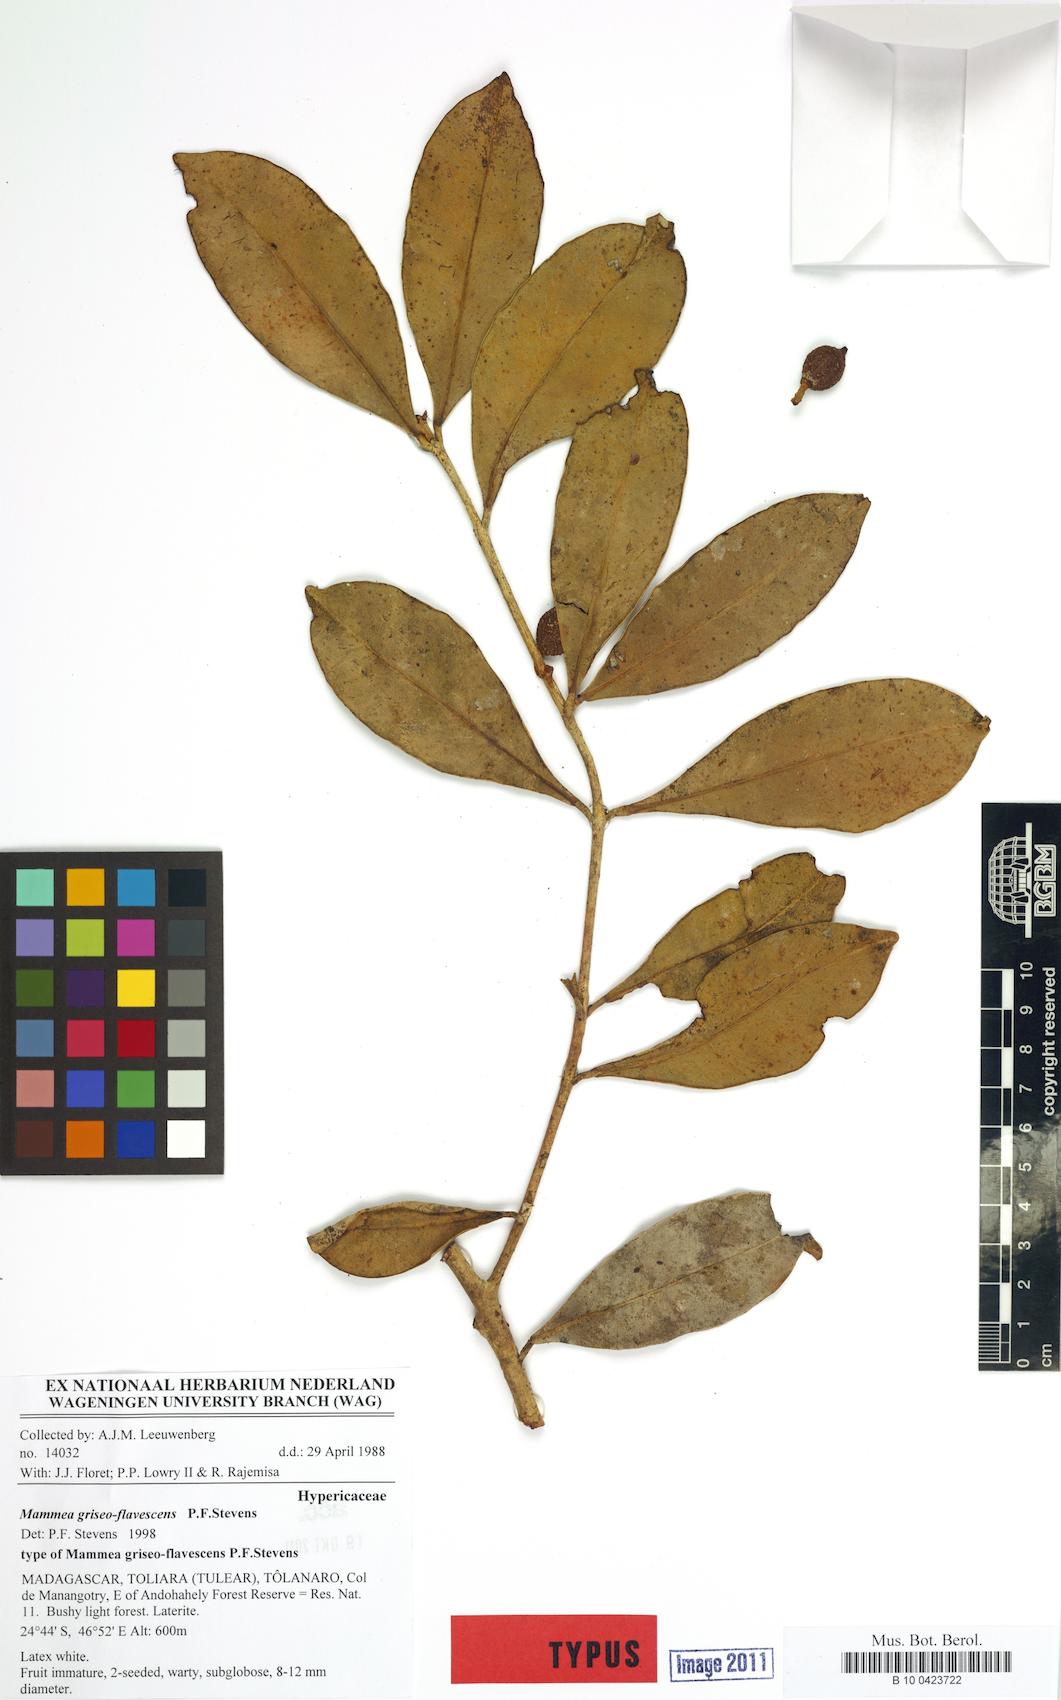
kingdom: Plantae
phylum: Tracheophyta
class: Magnoliopsida
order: Malpighiales
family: Calophyllaceae
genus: Mammea
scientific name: Mammea griseo-flavescens
